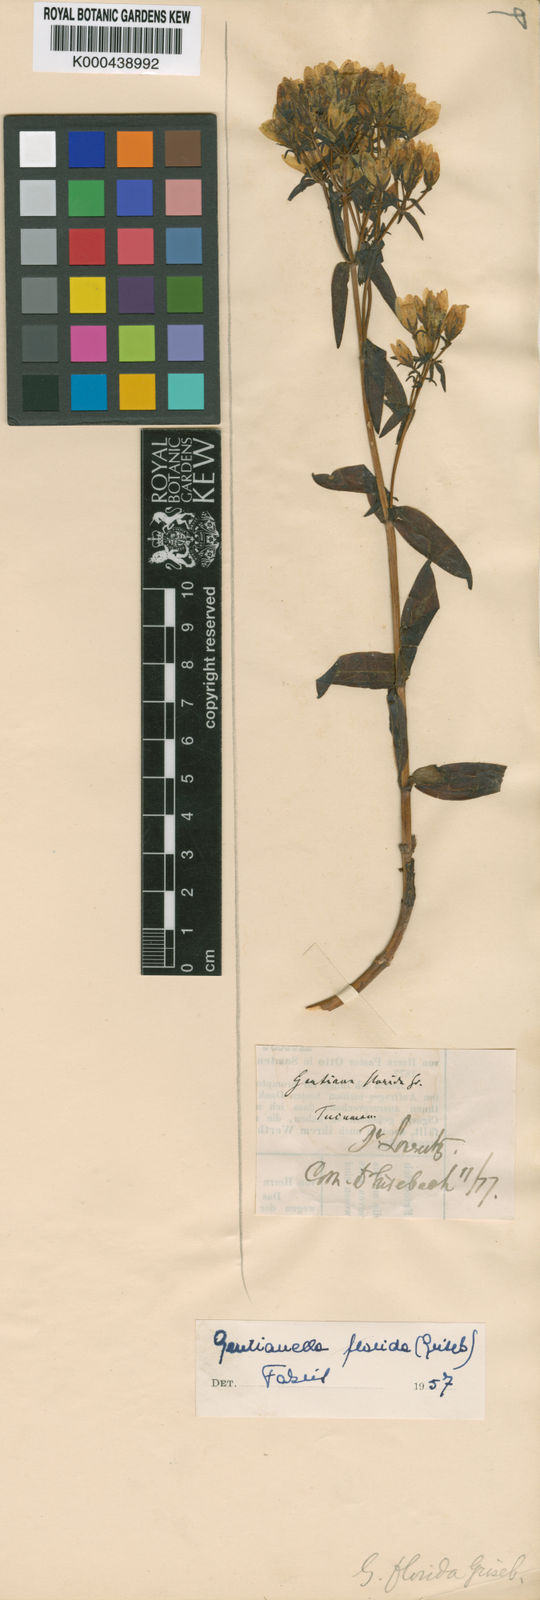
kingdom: Plantae
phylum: Tracheophyta
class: Magnoliopsida
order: Gentianales
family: Gentianaceae
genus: Gentianella
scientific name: Gentianella helianthemoides
